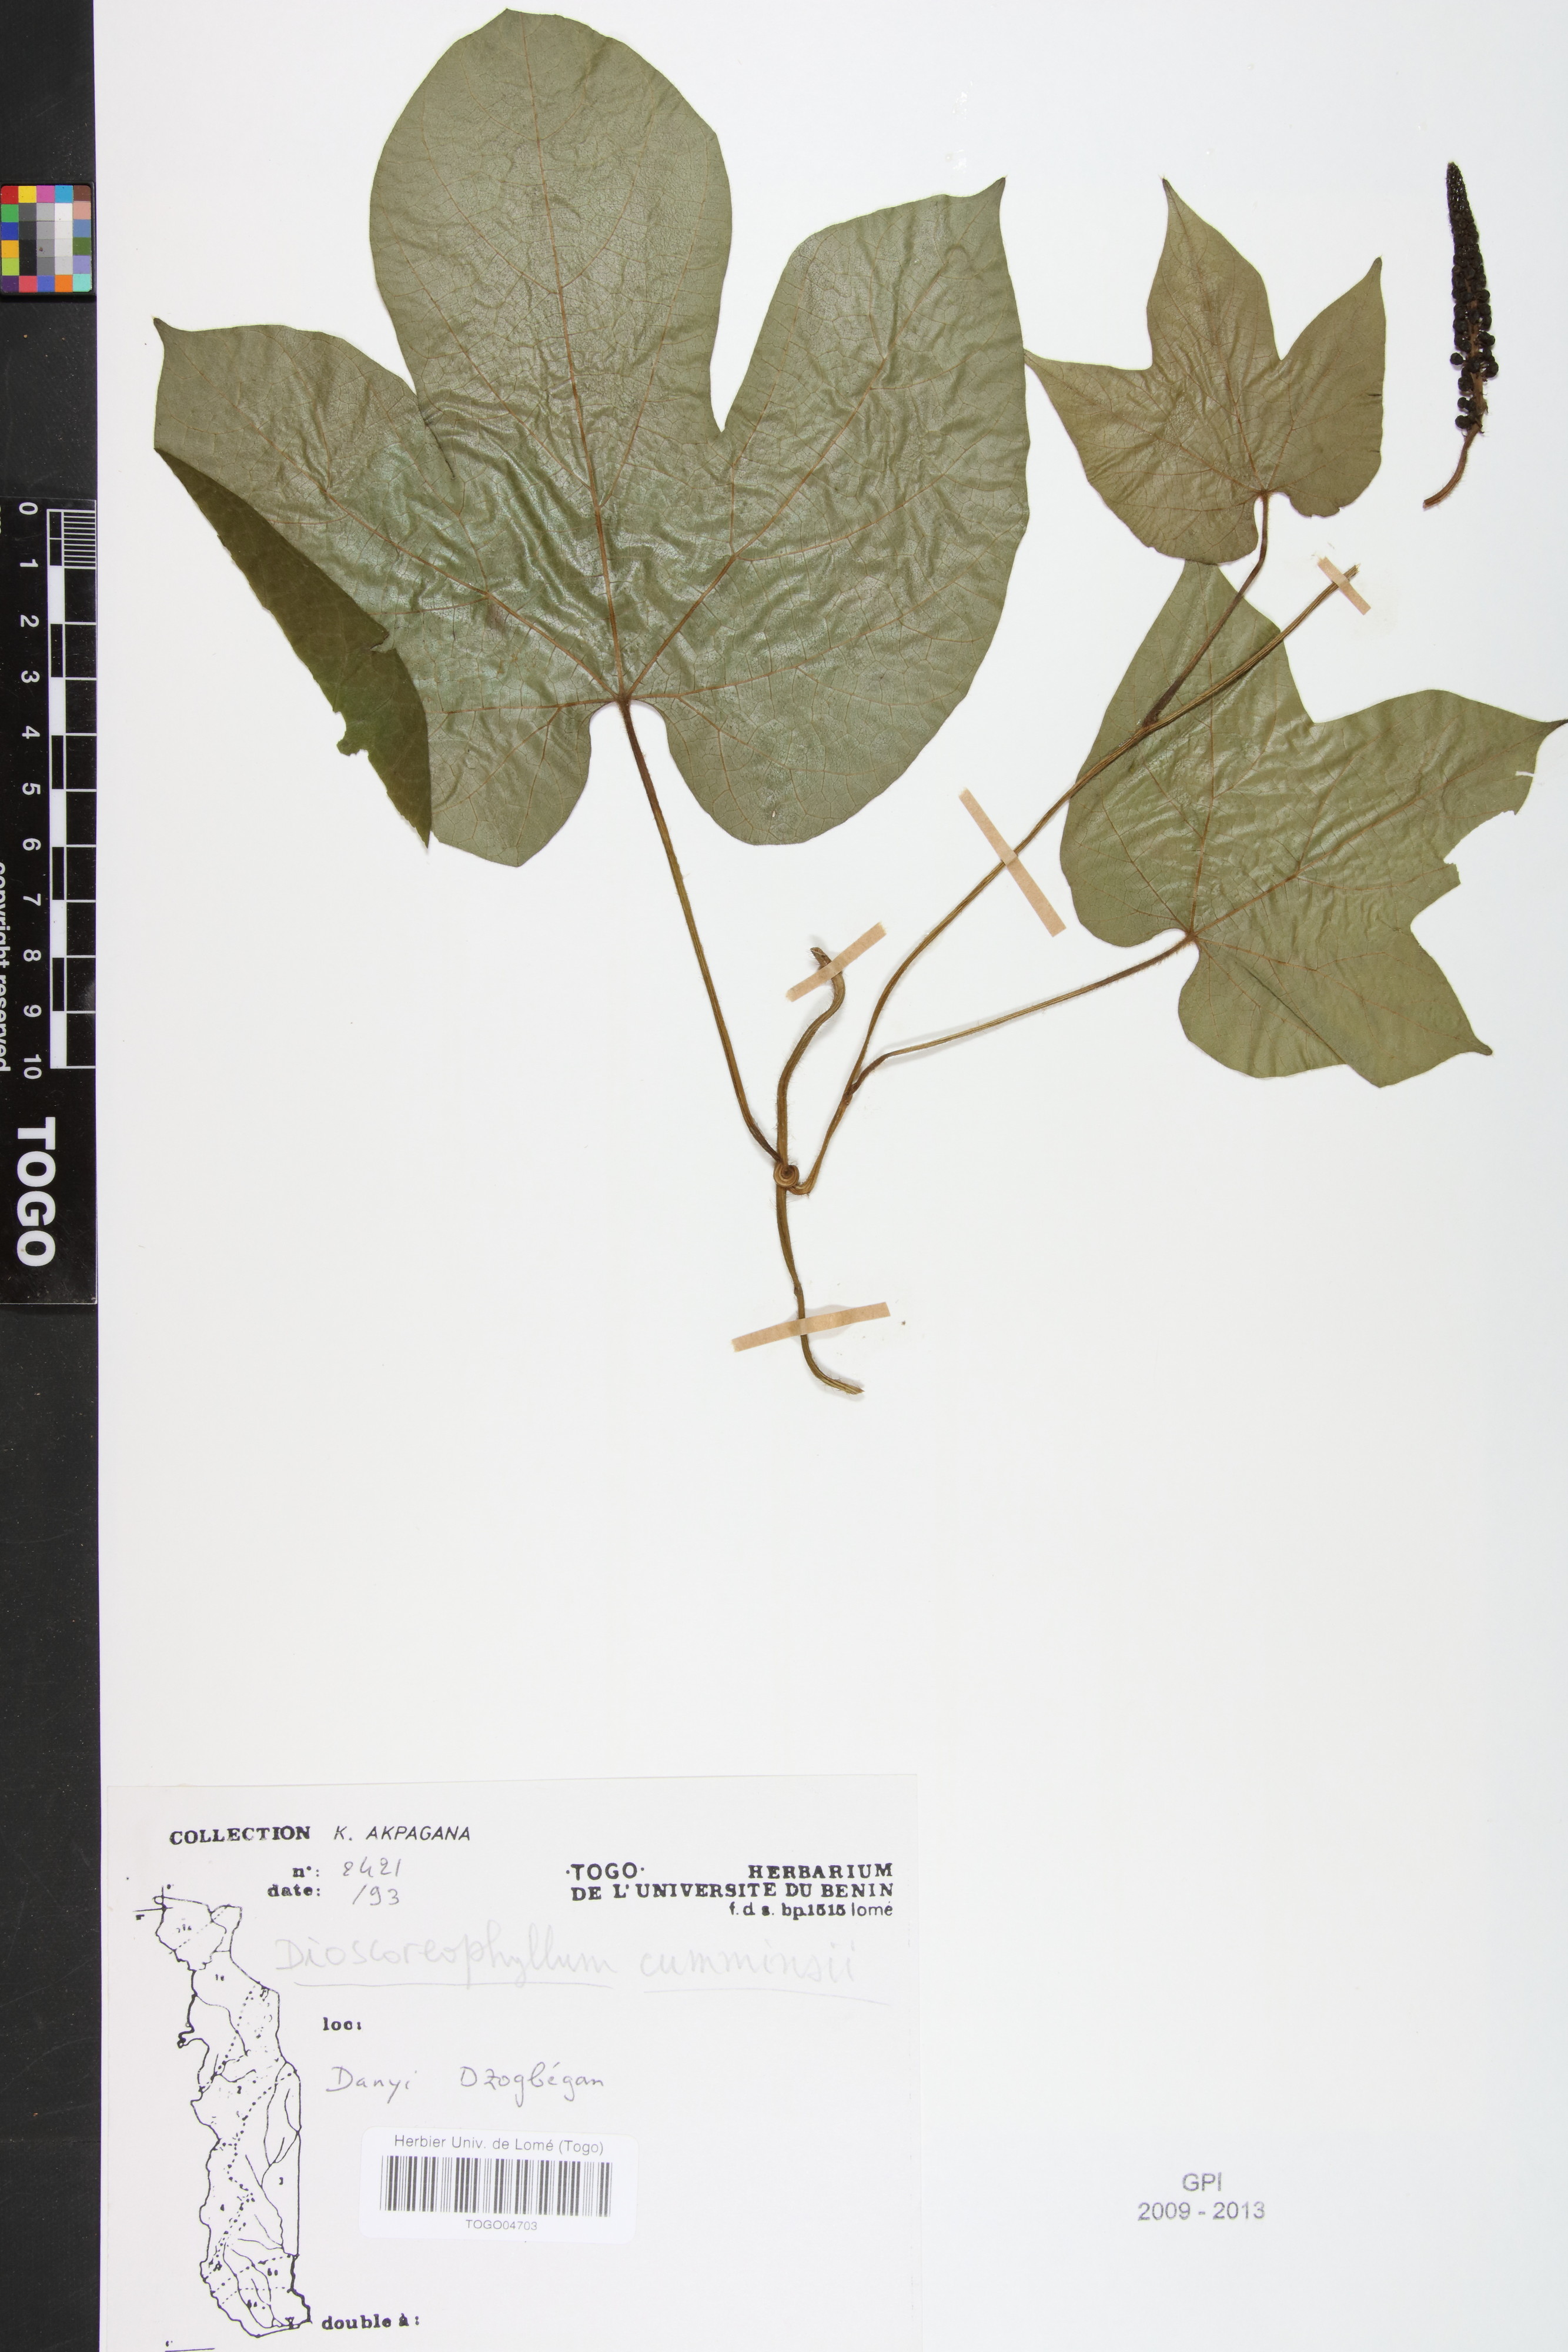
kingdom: Plantae
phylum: Tracheophyta
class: Magnoliopsida
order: Ranunculales
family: Menispermaceae
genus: Dioscoreophyllum
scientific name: Dioscoreophyllum volkensii
